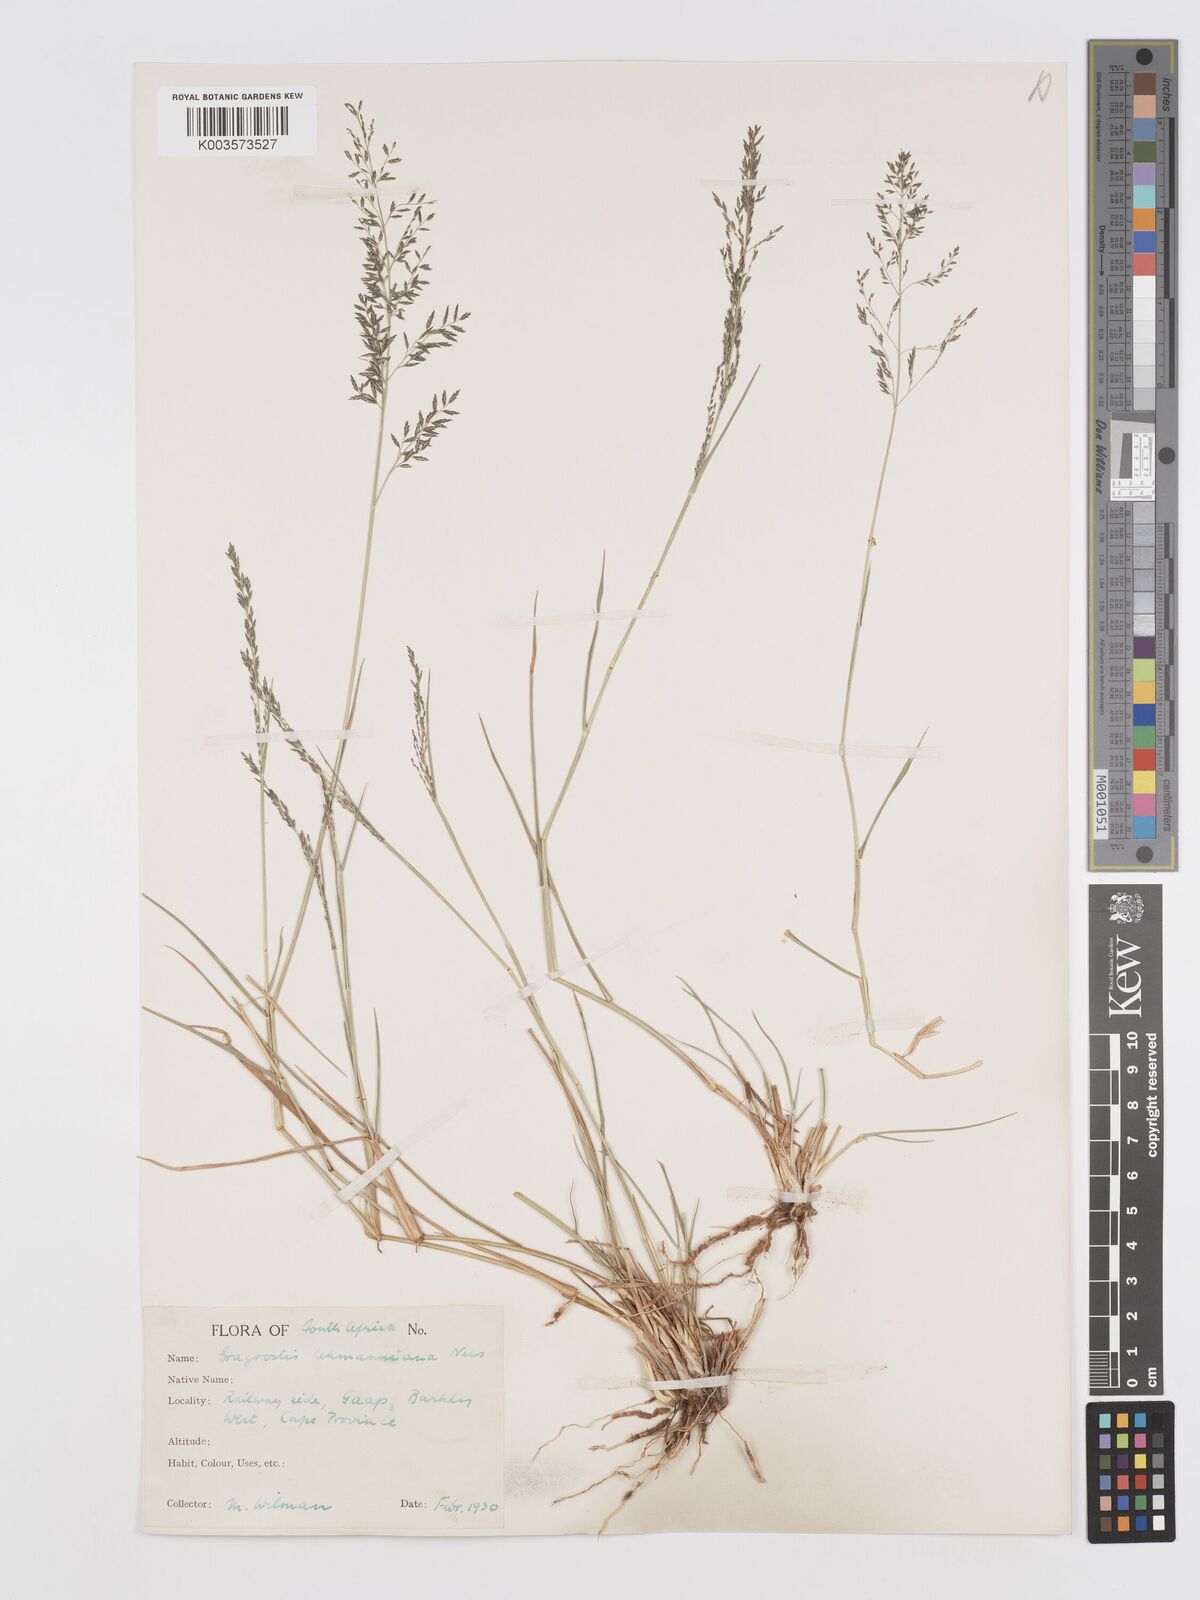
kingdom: Plantae
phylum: Tracheophyta
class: Liliopsida
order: Poales
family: Poaceae
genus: Eragrostis
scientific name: Eragrostis lehmanniana
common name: Lehmann lovegrass
